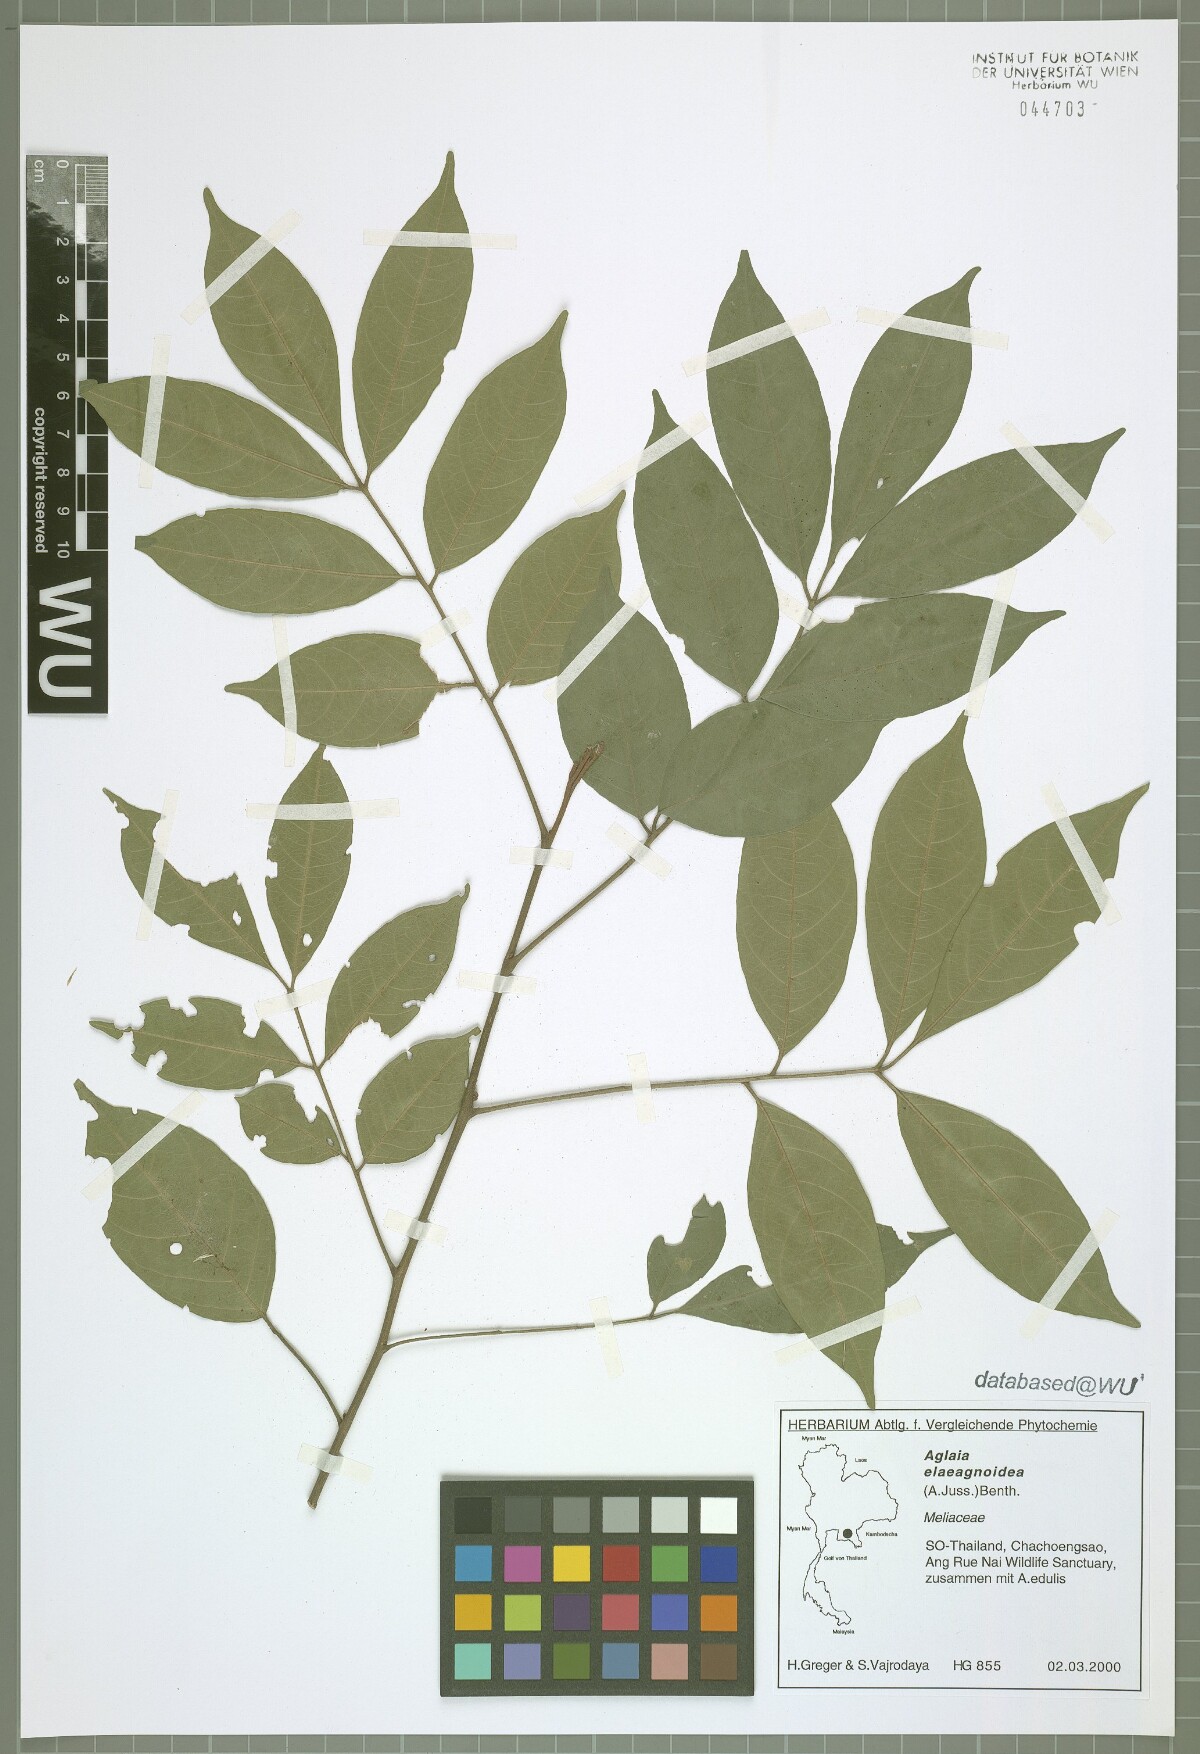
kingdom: Plantae
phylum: Tracheophyta
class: Magnoliopsida
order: Sapindales
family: Meliaceae
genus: Aglaia
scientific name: Aglaia elaeagnoidea
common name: Droopyleaf
